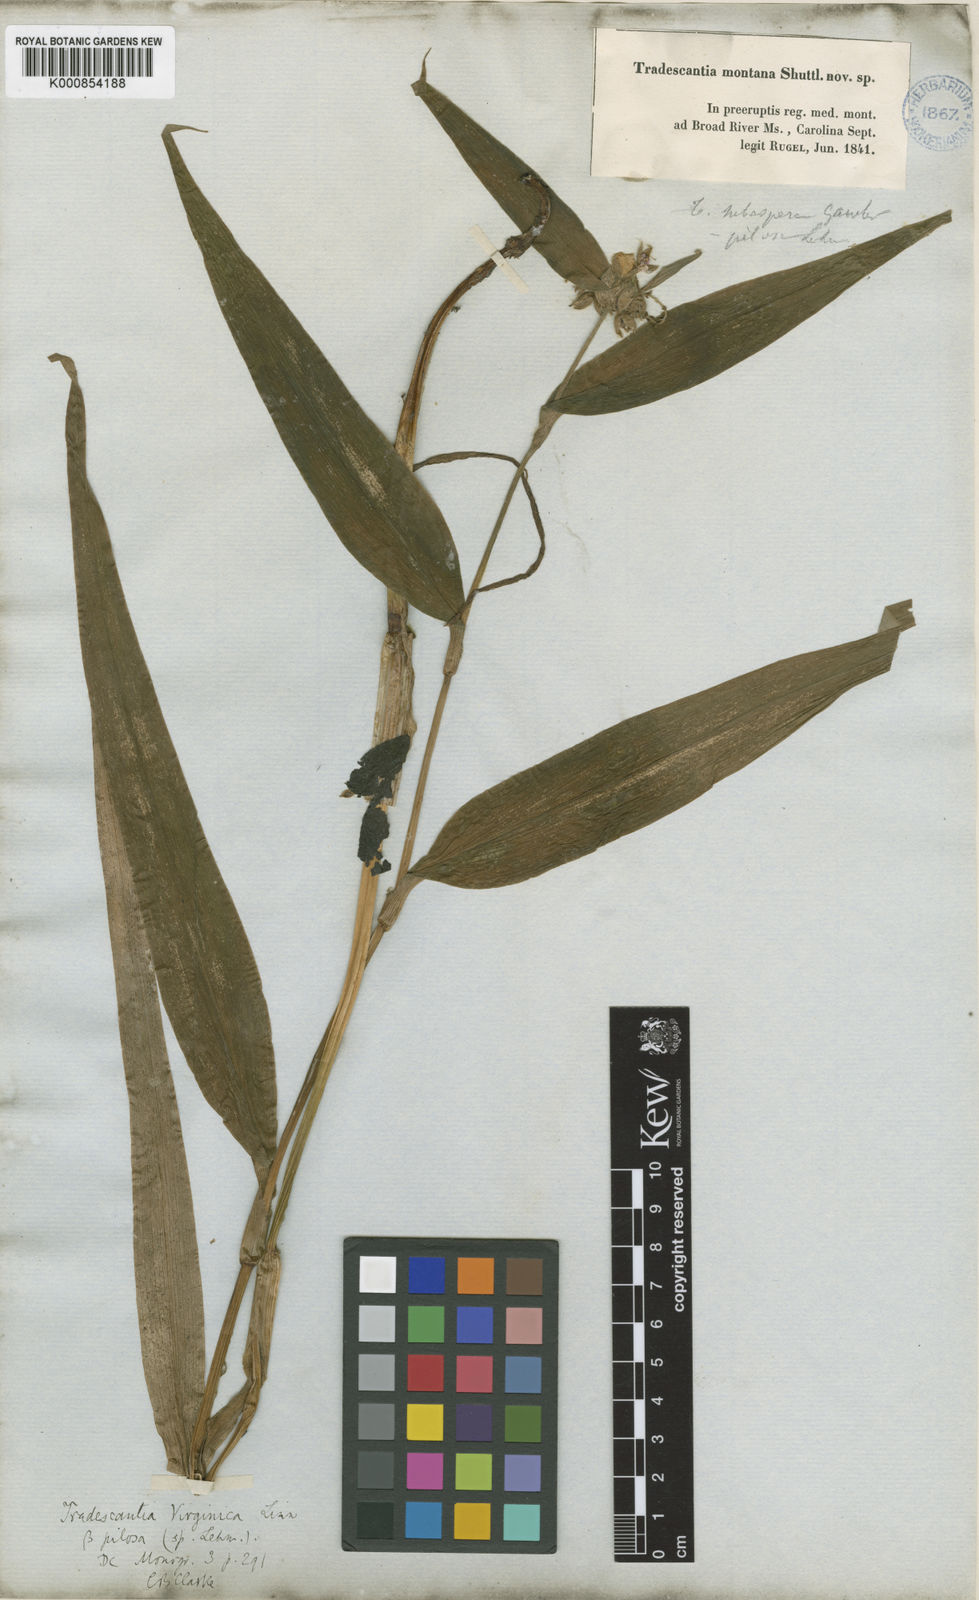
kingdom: Plantae
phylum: Tracheophyta
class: Liliopsida
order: Commelinales
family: Commelinaceae
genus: Tradescantia
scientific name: Tradescantia subaspera
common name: Wide-leaf spiderwort
